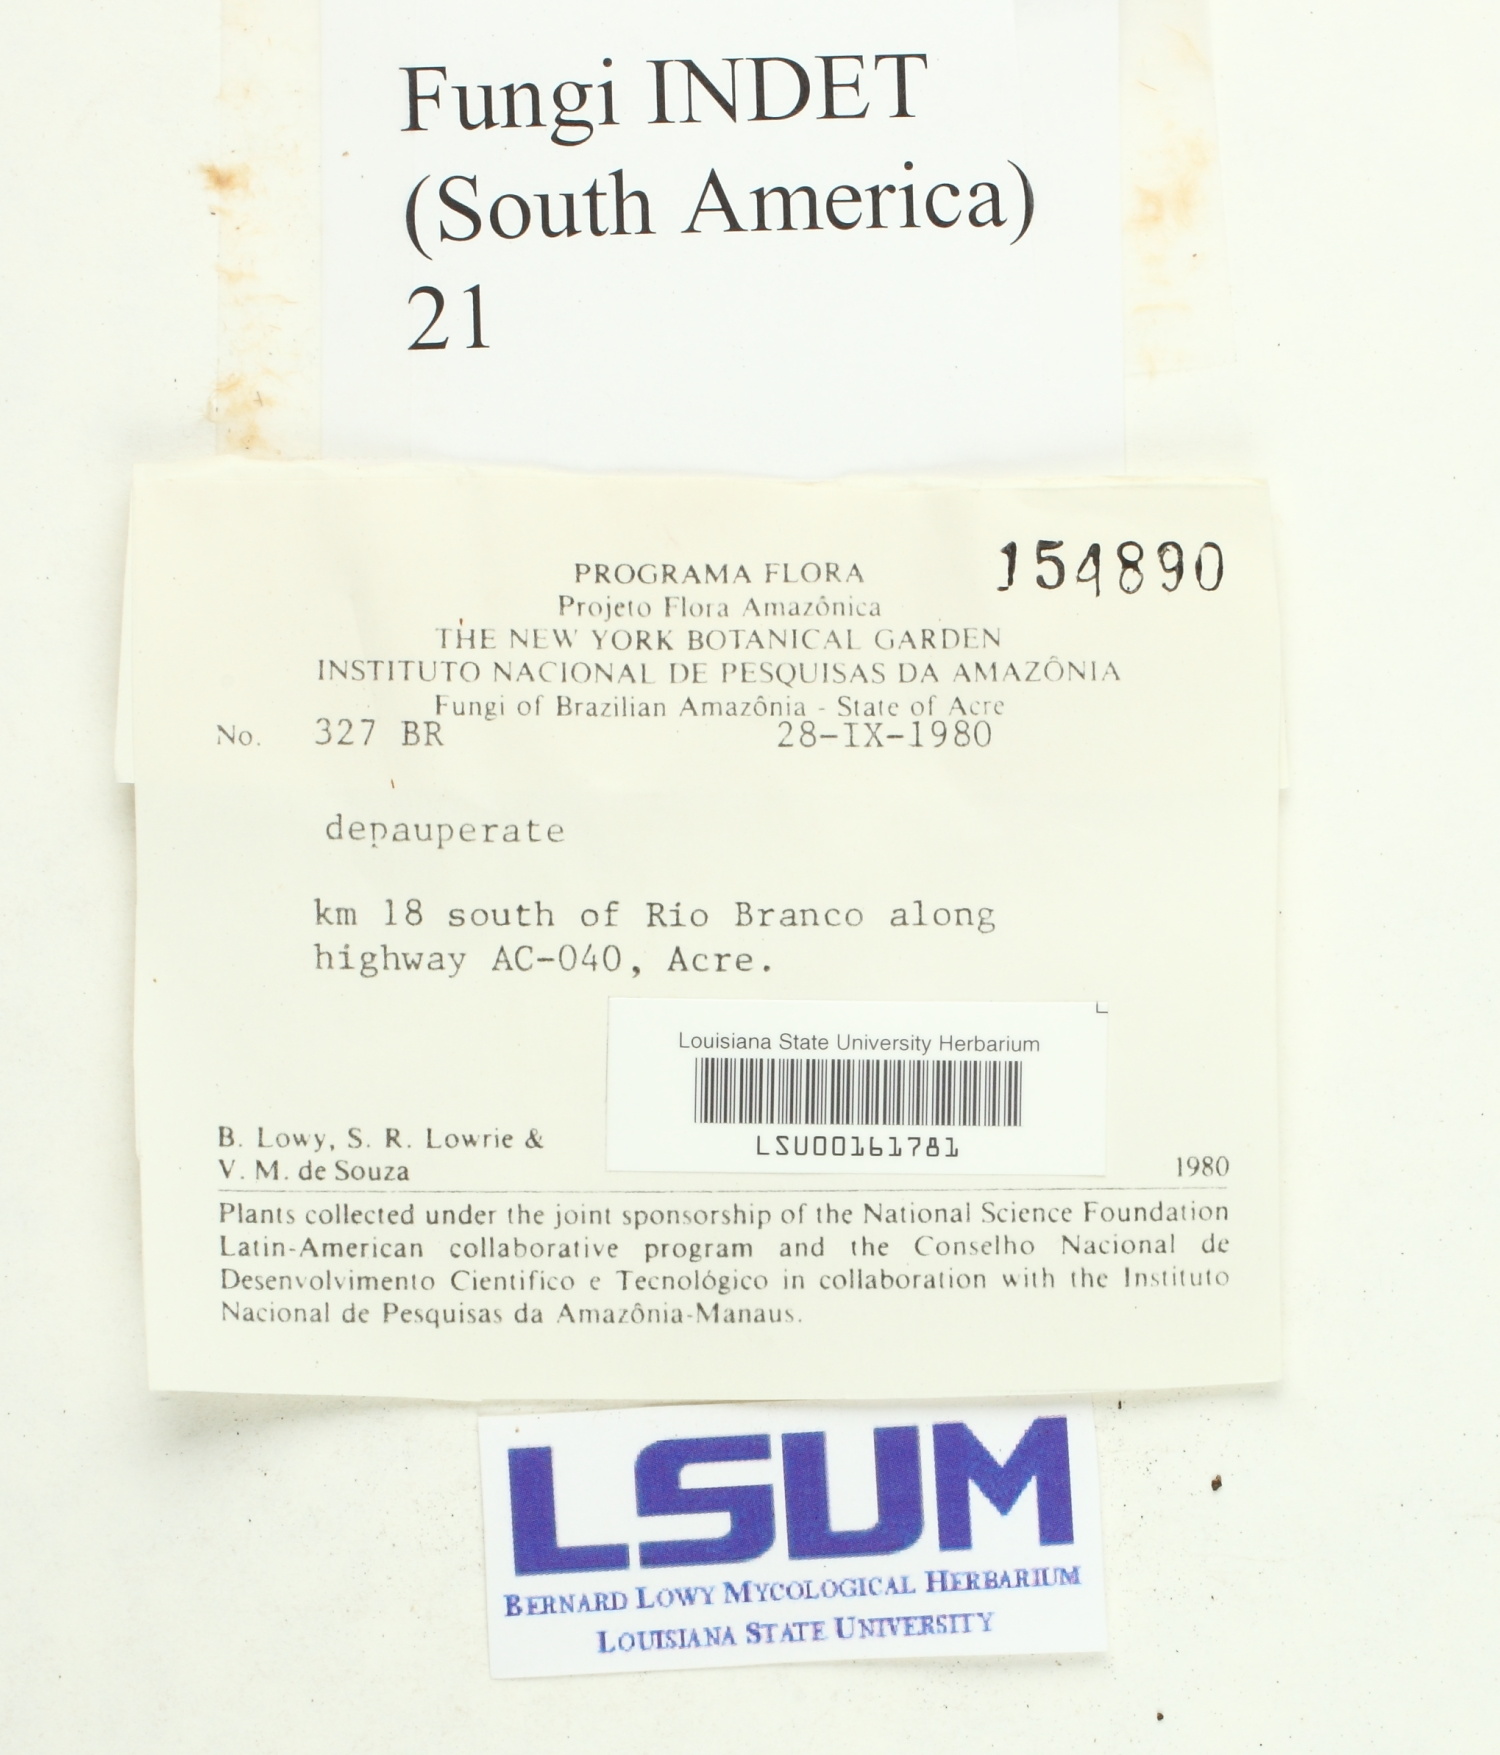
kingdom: Fungi
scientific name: Fungi
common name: Fungi
